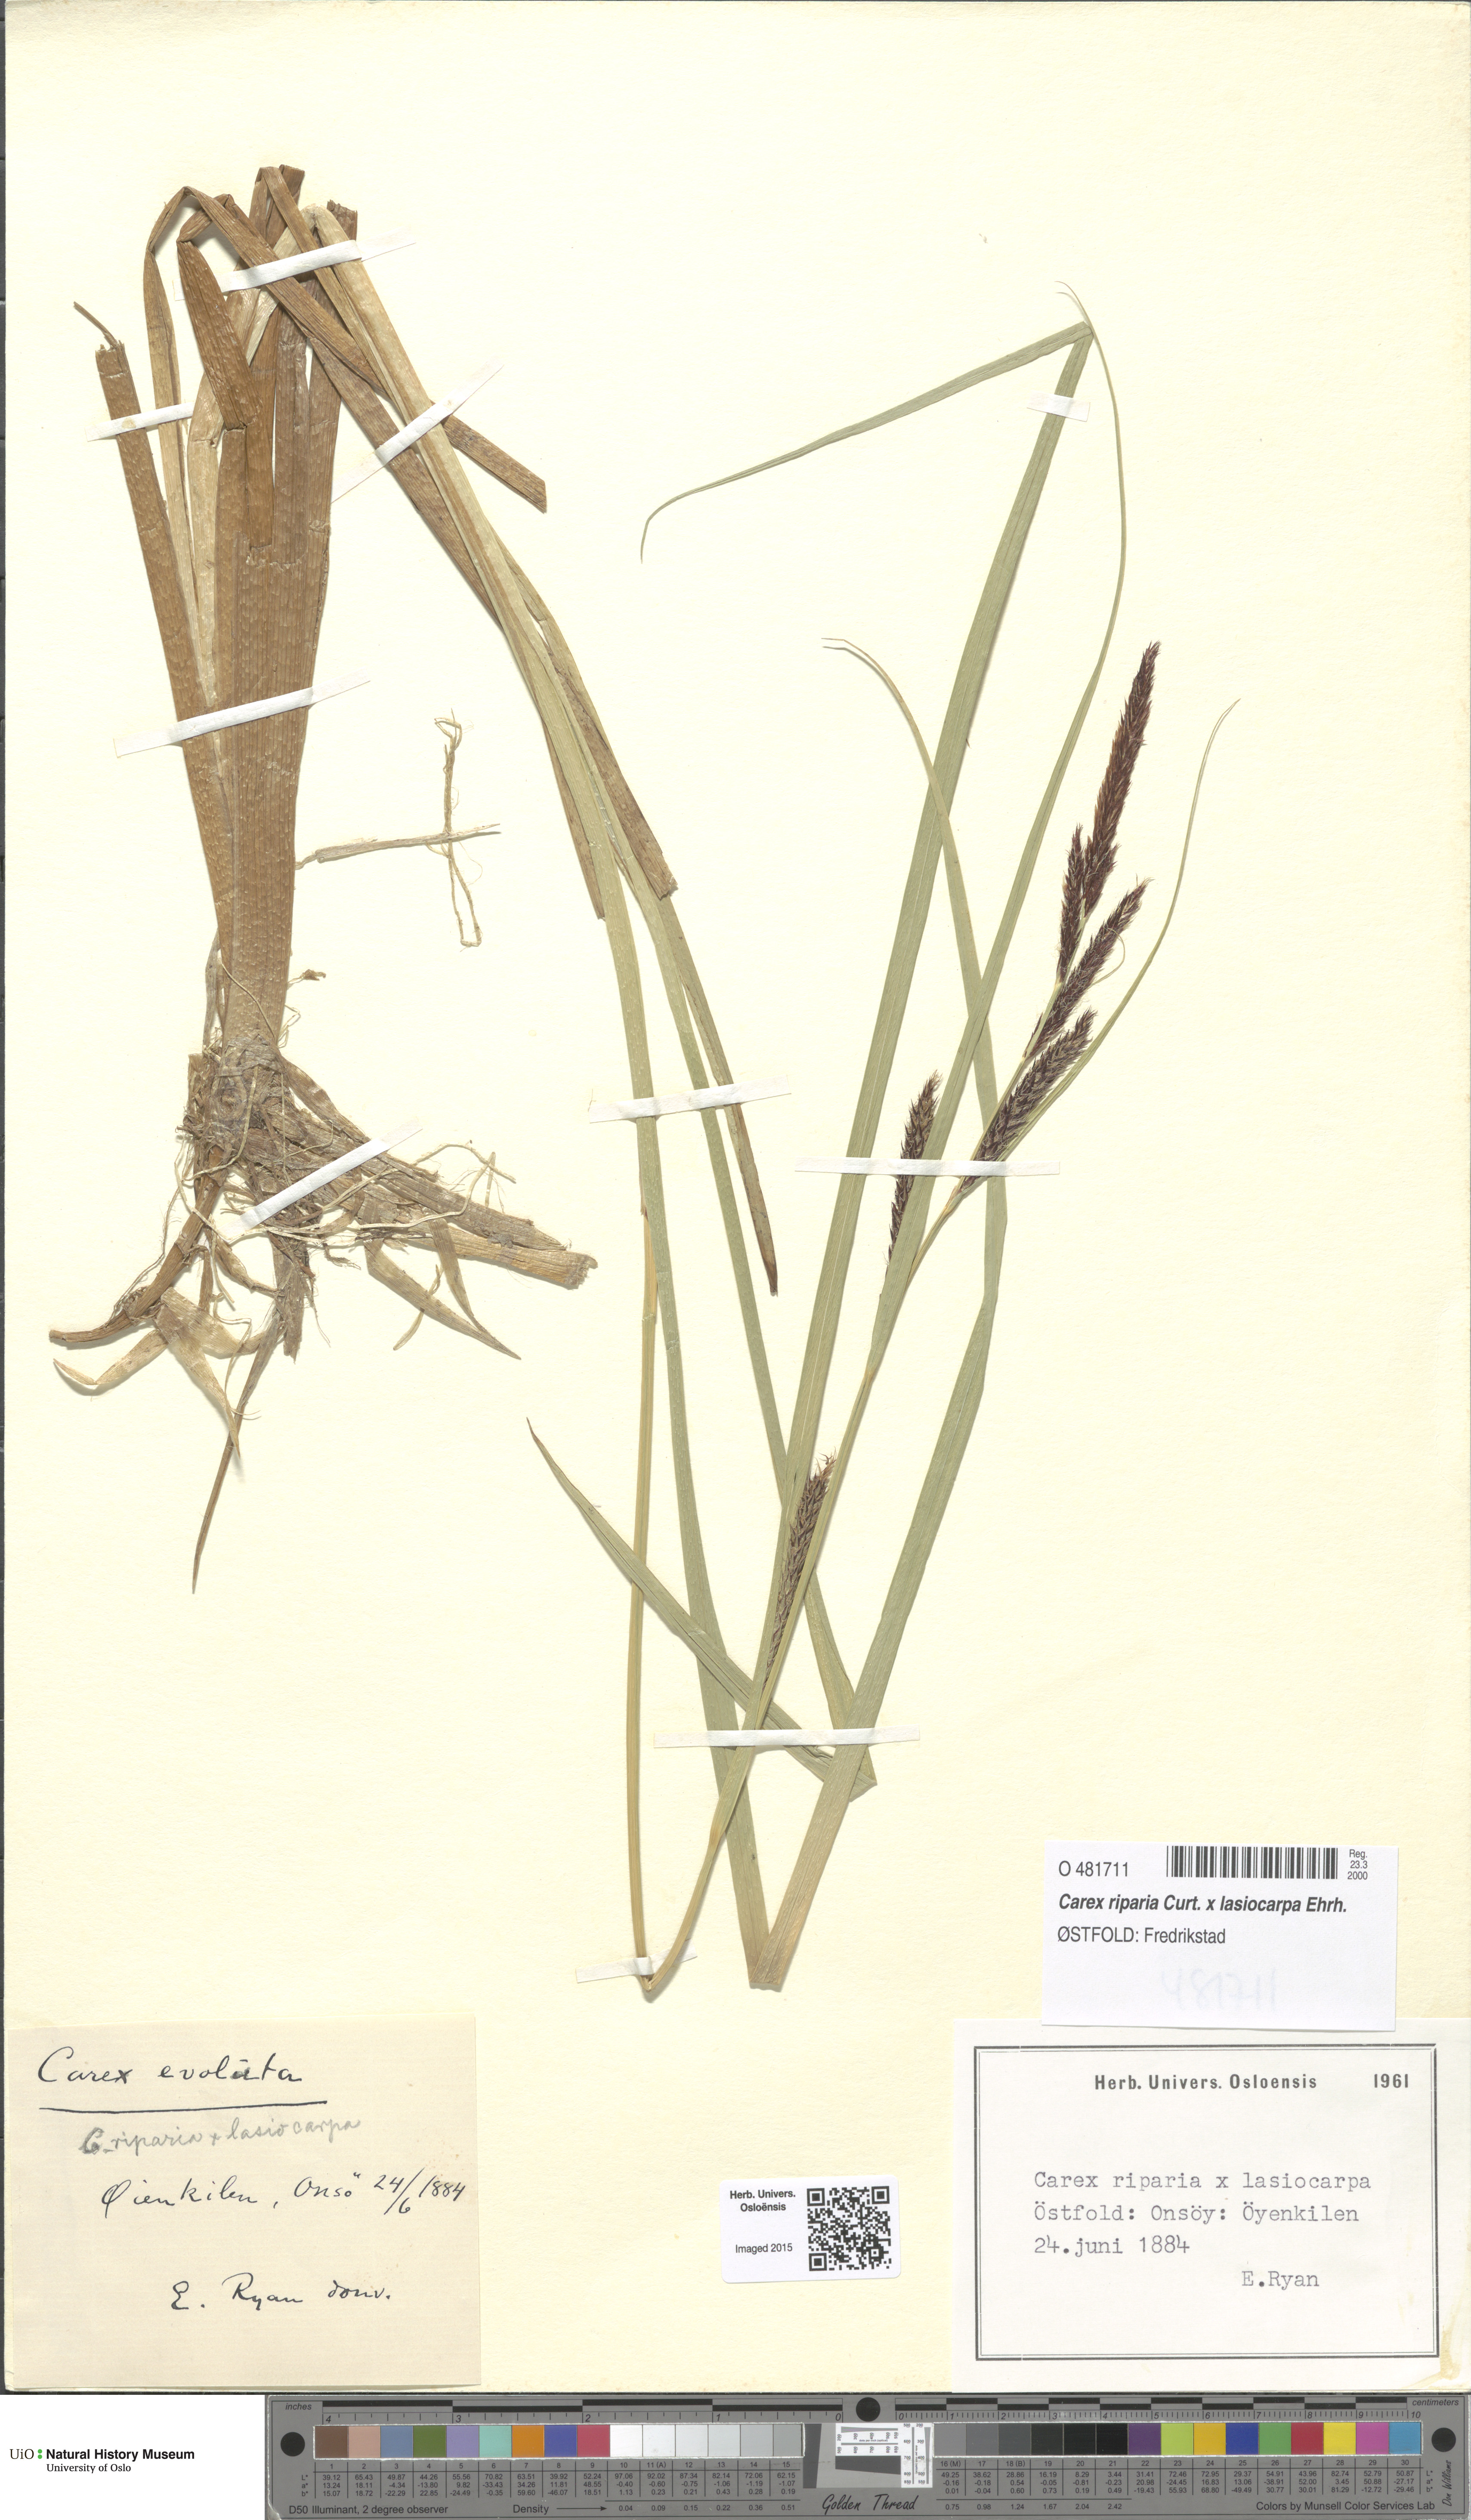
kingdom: Plantae
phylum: Tracheophyta
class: Liliopsida
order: Poales
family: Cyperaceae
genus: Carex
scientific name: Carex
